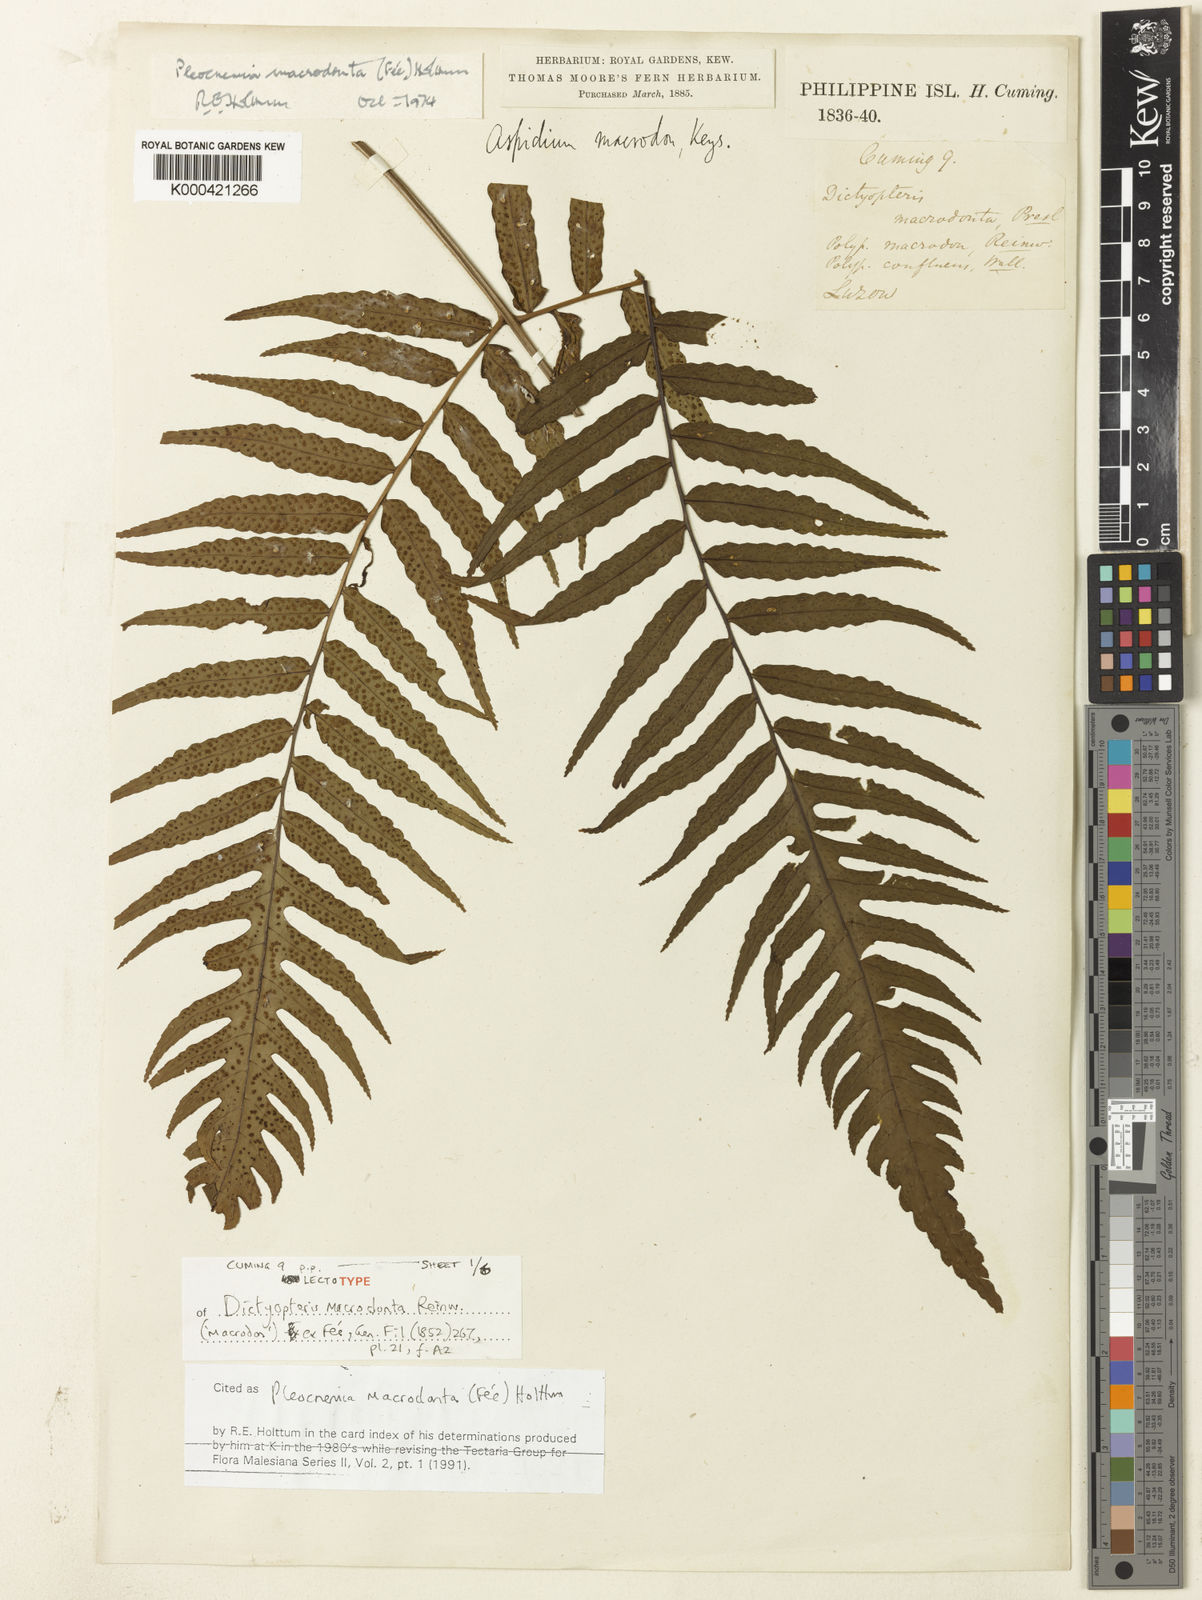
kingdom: Plantae
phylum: Tracheophyta
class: Polypodiopsida
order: Polypodiales
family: Dryopteridaceae
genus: Pleocnemia
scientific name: Pleocnemia
